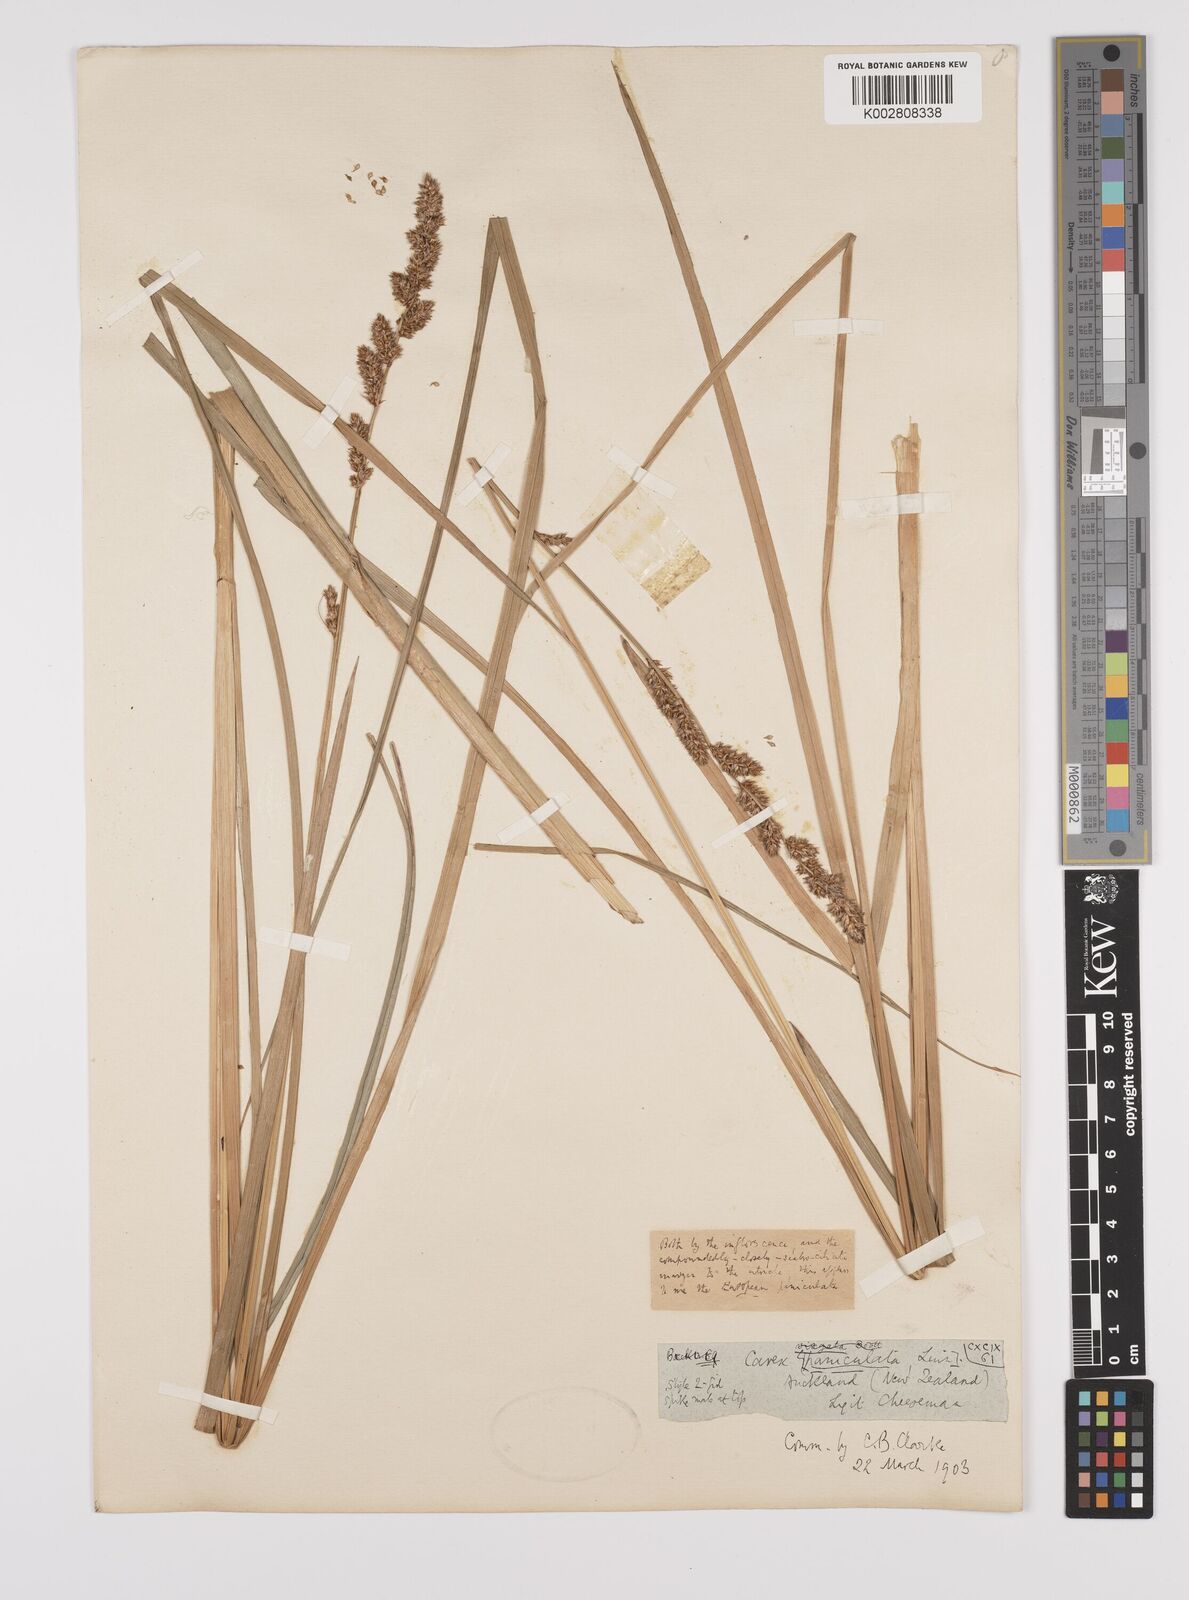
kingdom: Plantae
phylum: Tracheophyta
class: Liliopsida
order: Poales
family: Cyperaceae
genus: Carex
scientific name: Carex paniculata
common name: Greater tussock-sedge
